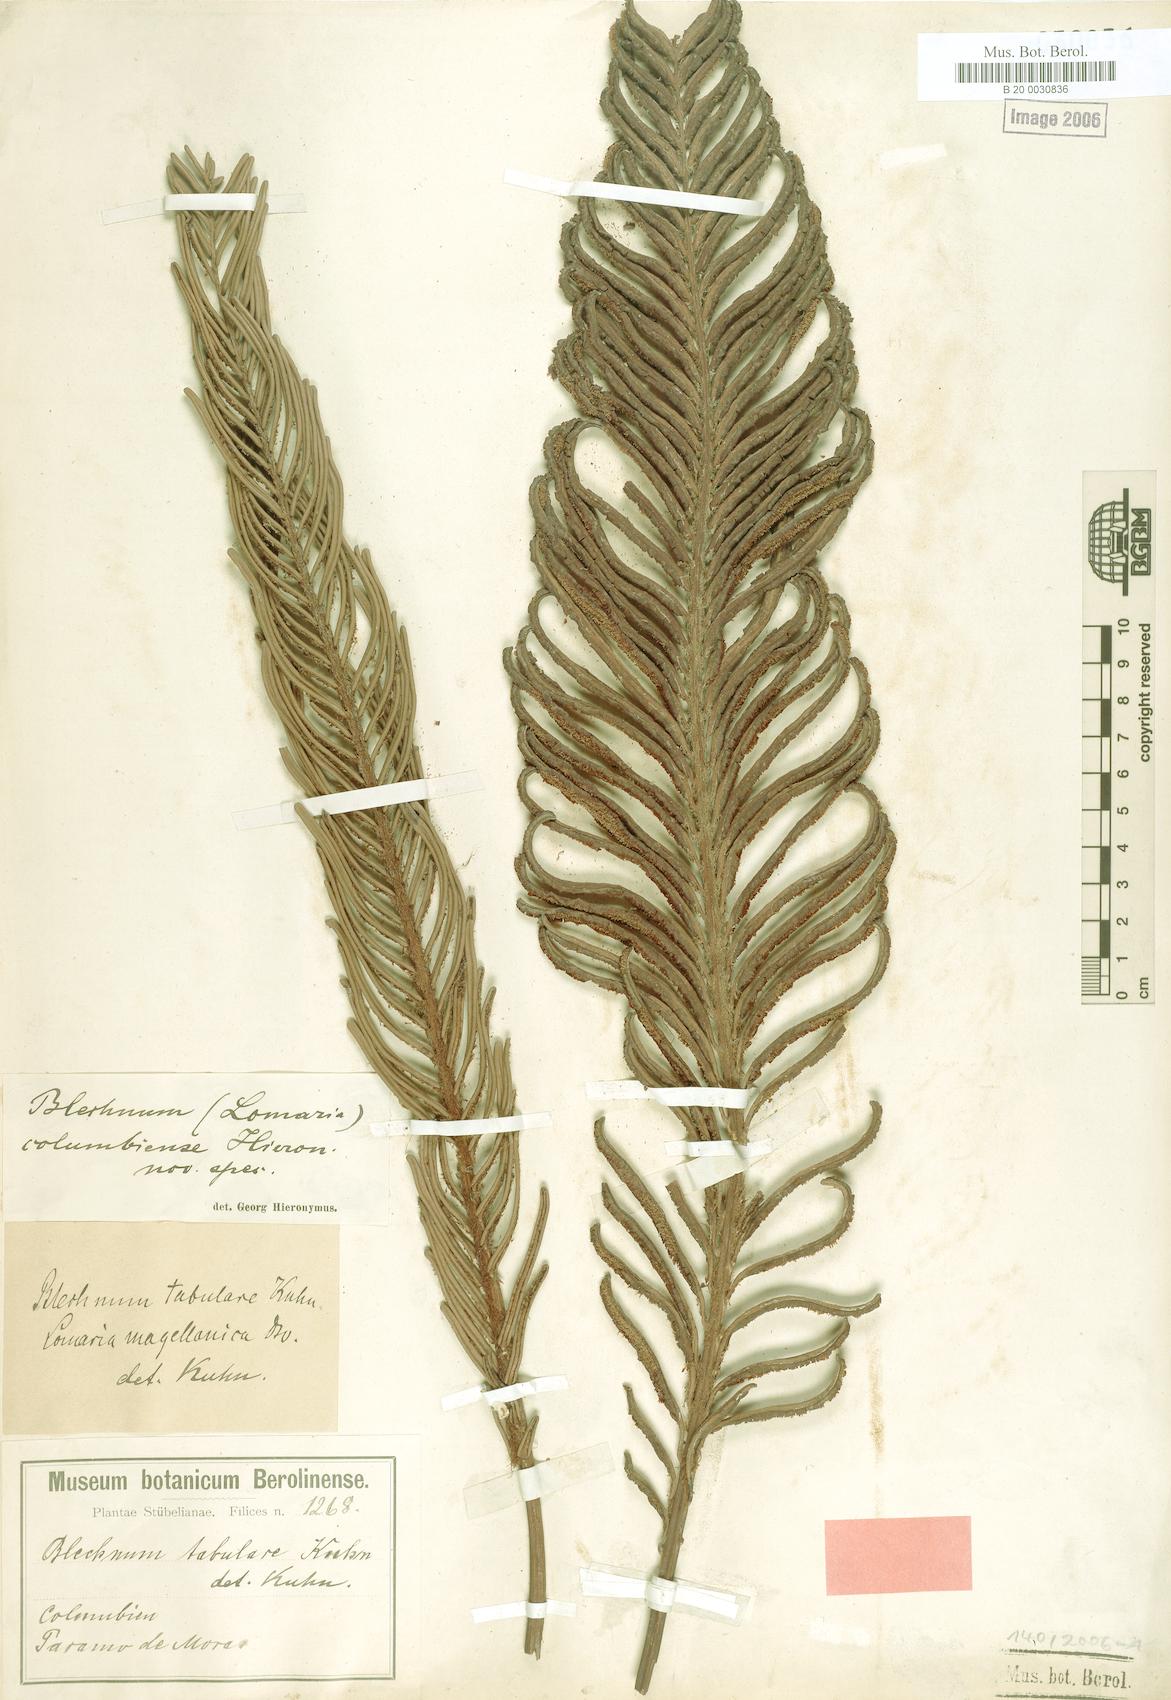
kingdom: Plantae
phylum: Tracheophyta
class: Polypodiopsida
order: Polypodiales
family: Blechnaceae
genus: Lomariocycas
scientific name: Lomariocycas columbiensis
